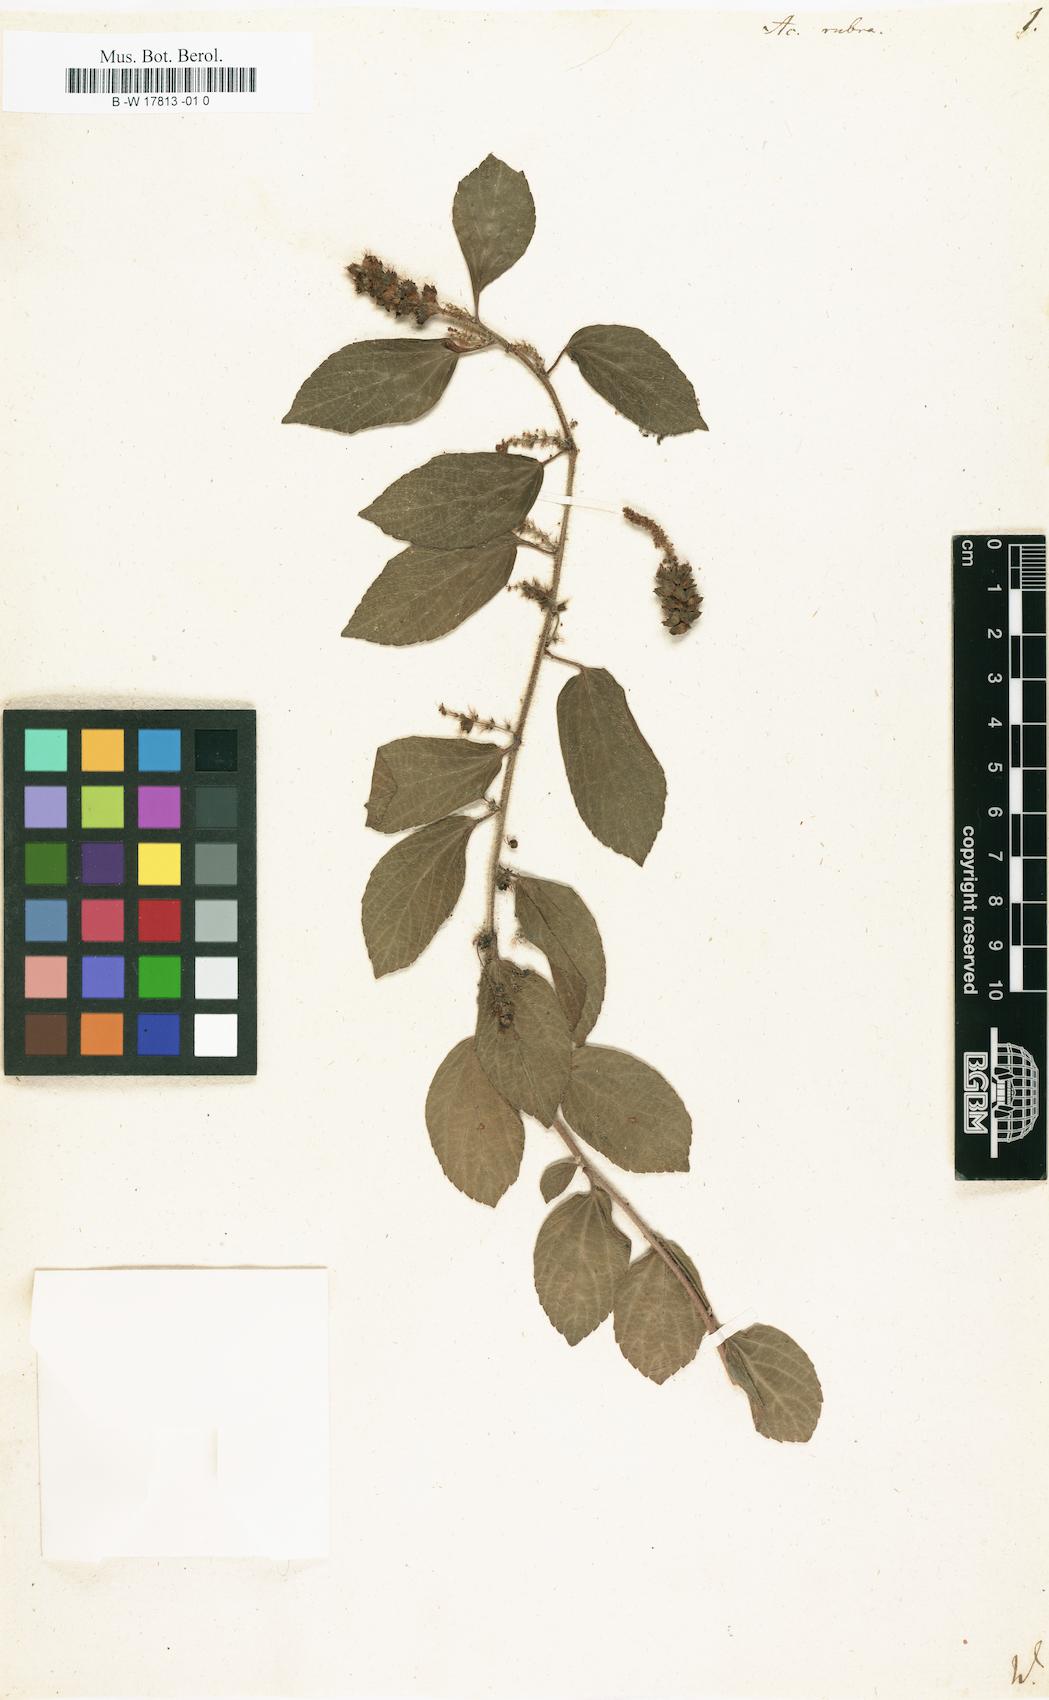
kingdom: Plantae
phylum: Tracheophyta
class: Magnoliopsida
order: Malpighiales
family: Euphorbiaceae
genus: Acalypha
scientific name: Acalypha phleoides
